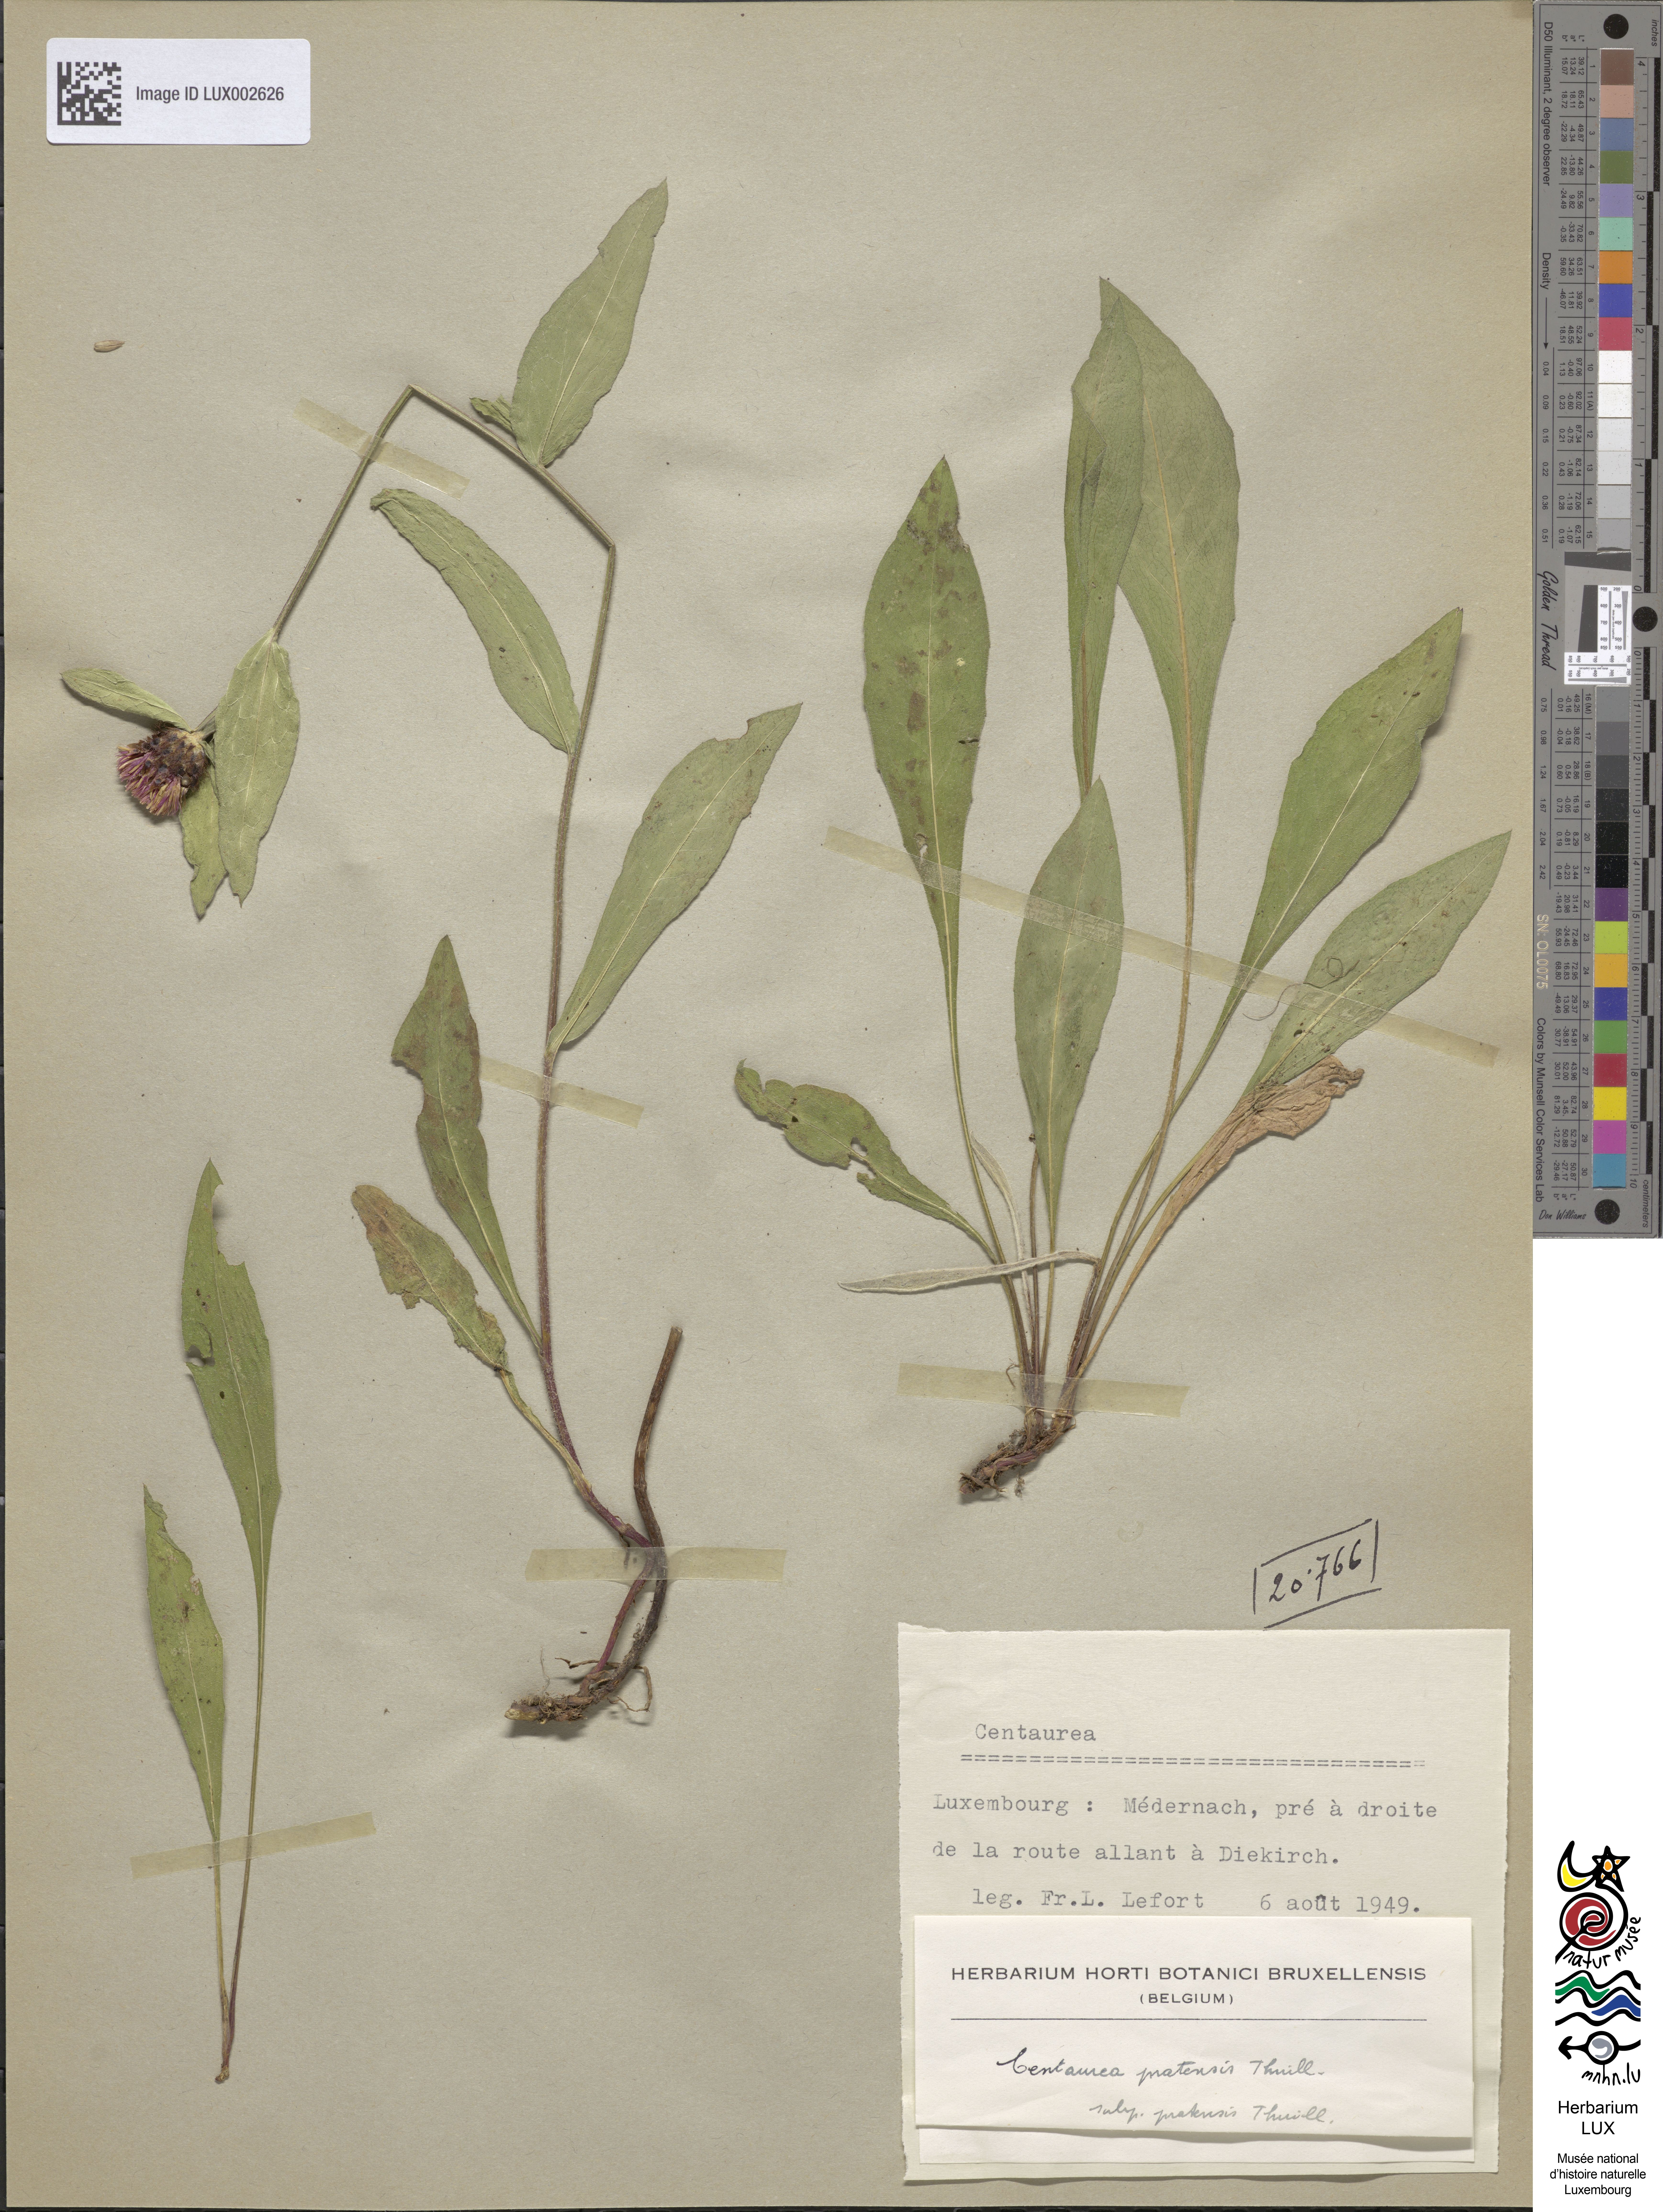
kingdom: Plantae
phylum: Tracheophyta
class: Magnoliopsida
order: Asterales
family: Asteraceae
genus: Centaurea
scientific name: Centaurea
